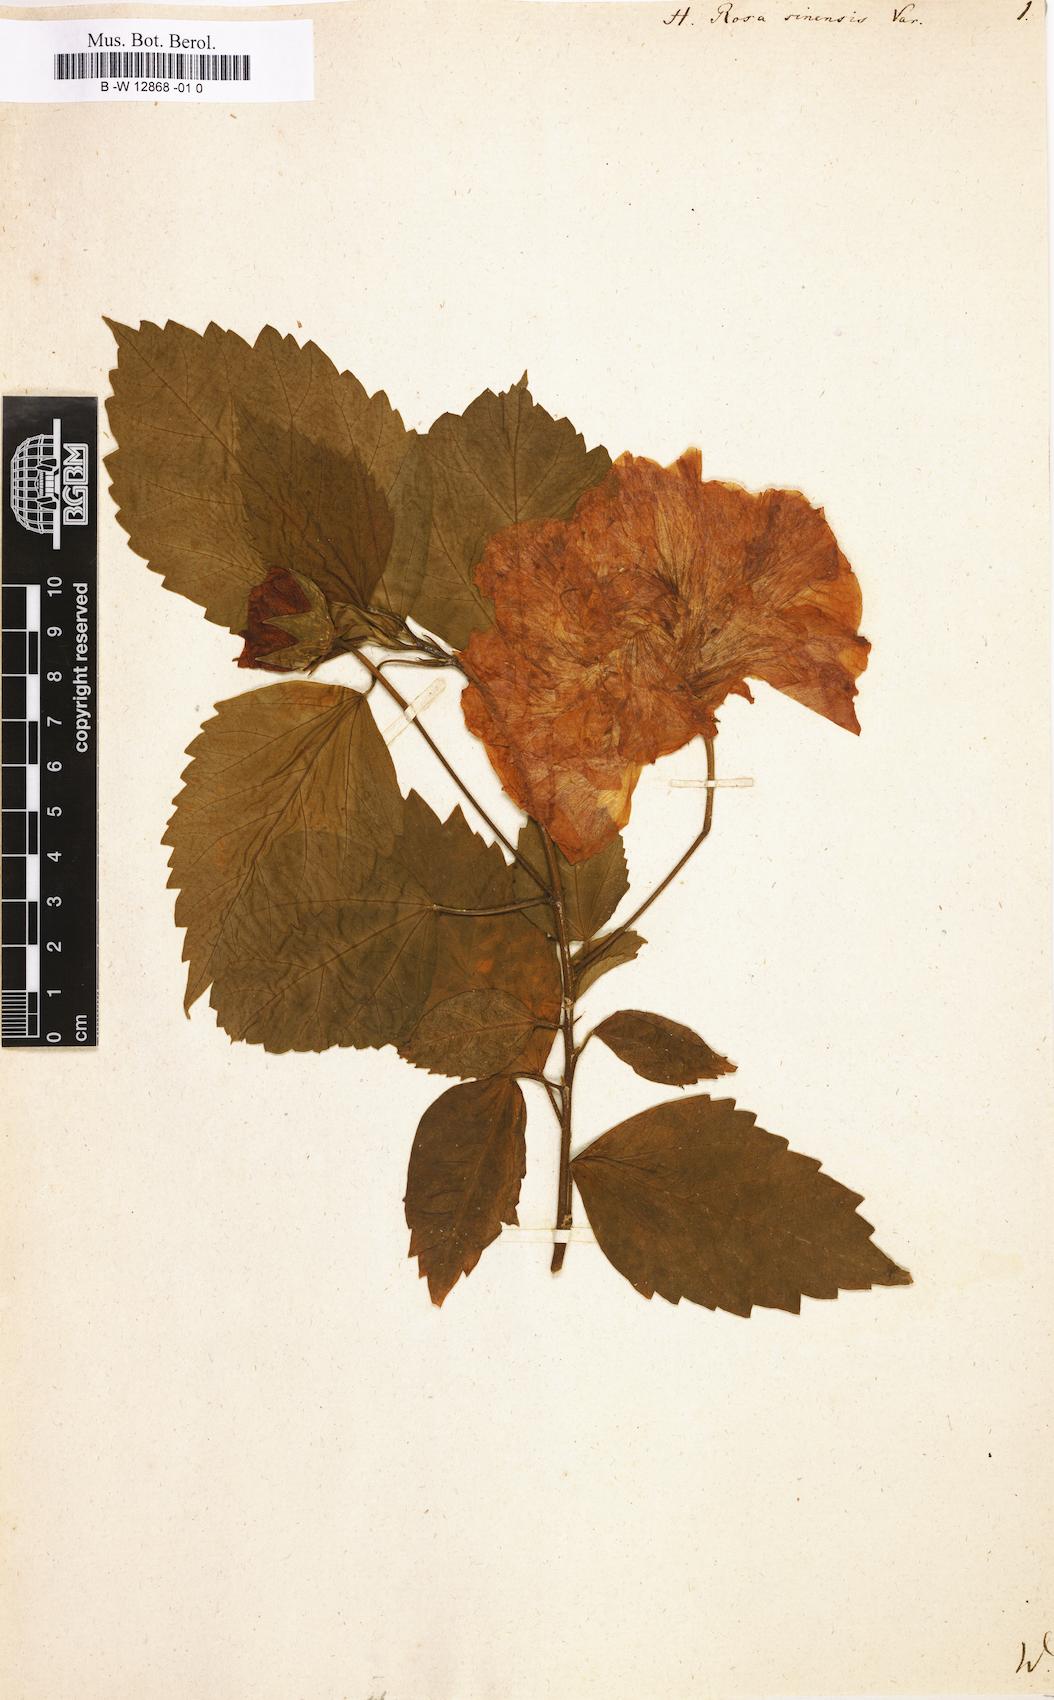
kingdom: Plantae
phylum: Tracheophyta
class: Magnoliopsida
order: Malvales
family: Malvaceae
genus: Hibiscus
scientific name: Hibiscus rosa-sinensis
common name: Hibiscus
